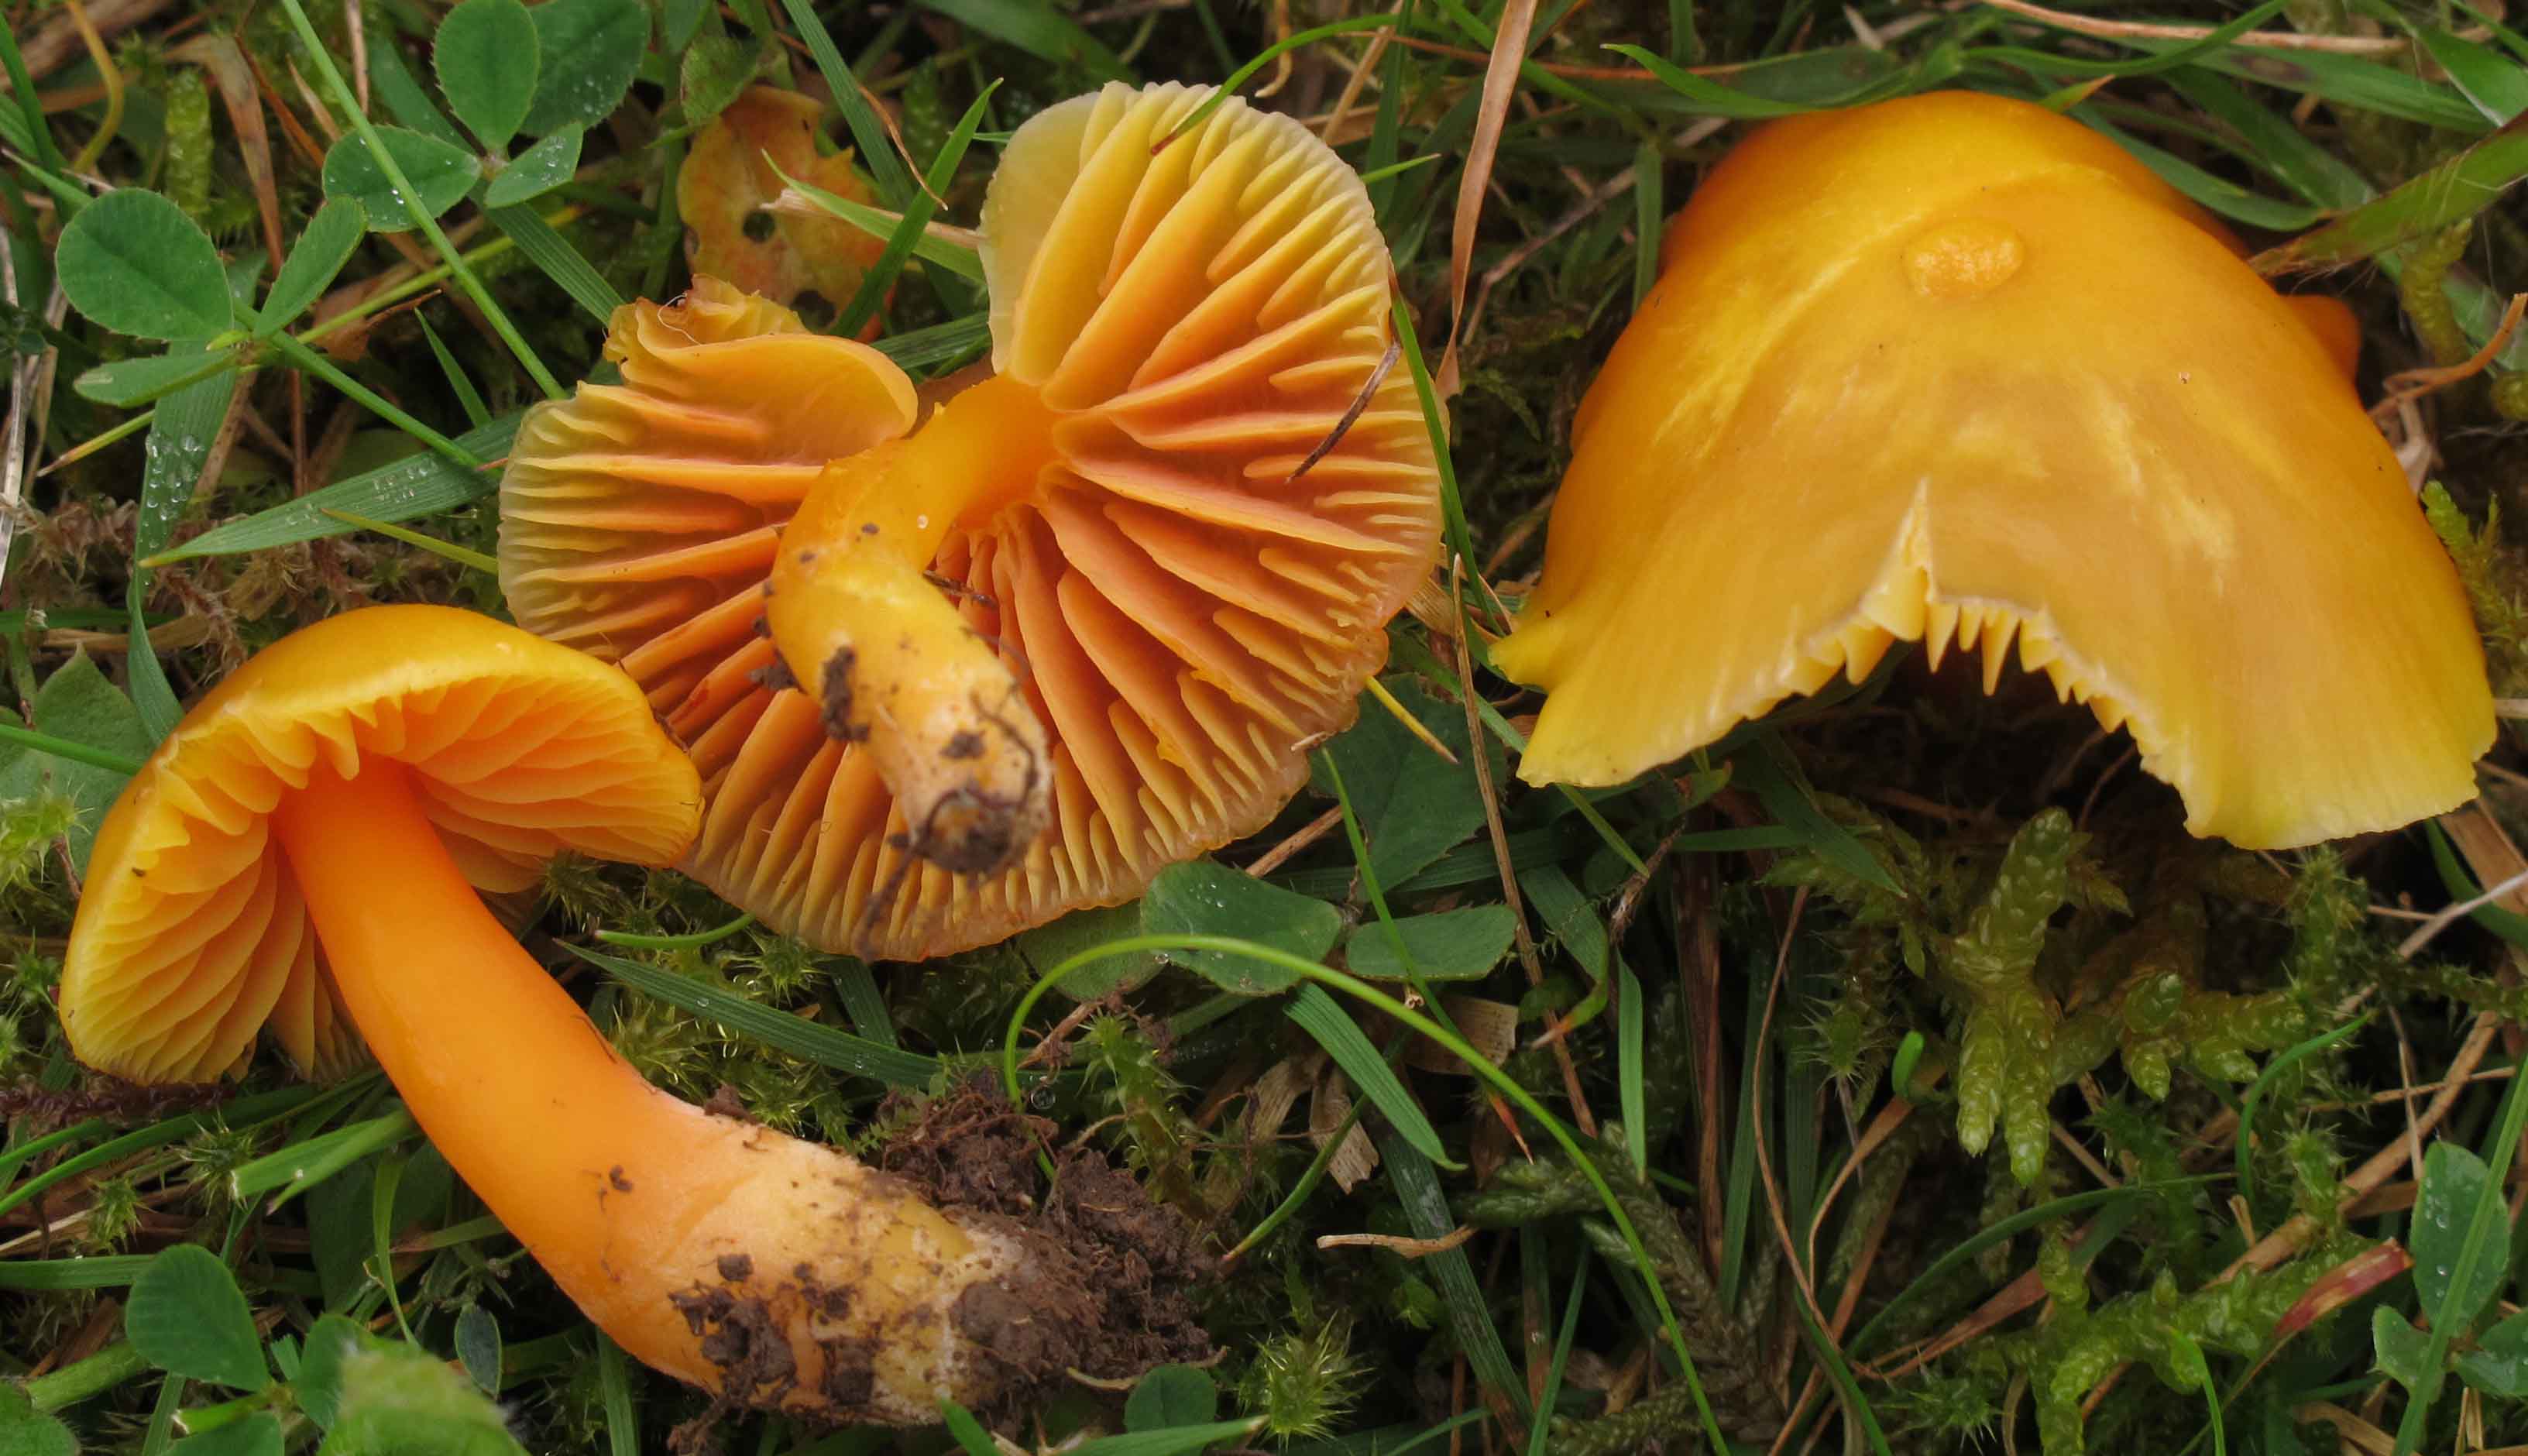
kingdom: Fungi
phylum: Basidiomycota
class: Agaricomycetes
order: Agaricales
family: Hygrophoraceae
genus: Hygrocybe
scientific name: Hygrocybe quieta
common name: tæge-vokshat
